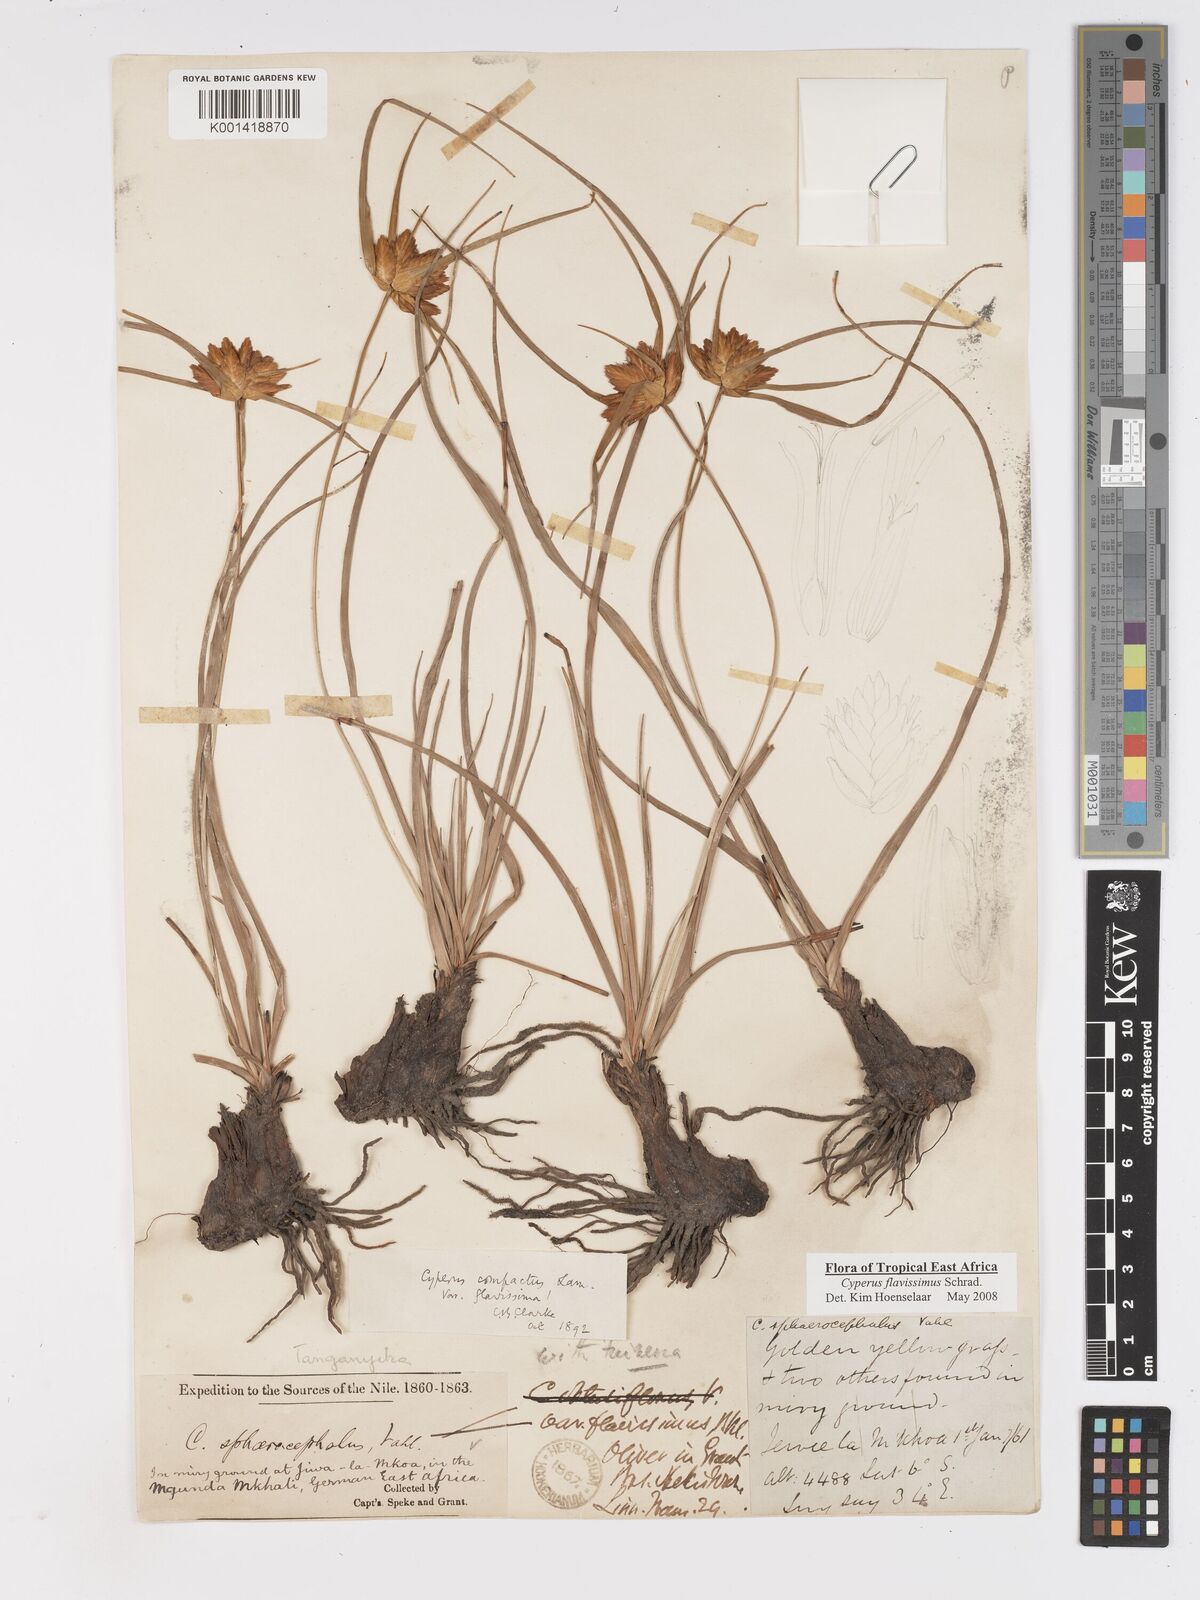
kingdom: Plantae
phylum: Tracheophyta
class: Liliopsida
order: Poales
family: Cyperaceae
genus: Cyperus
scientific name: Cyperus sphaerocephalus
